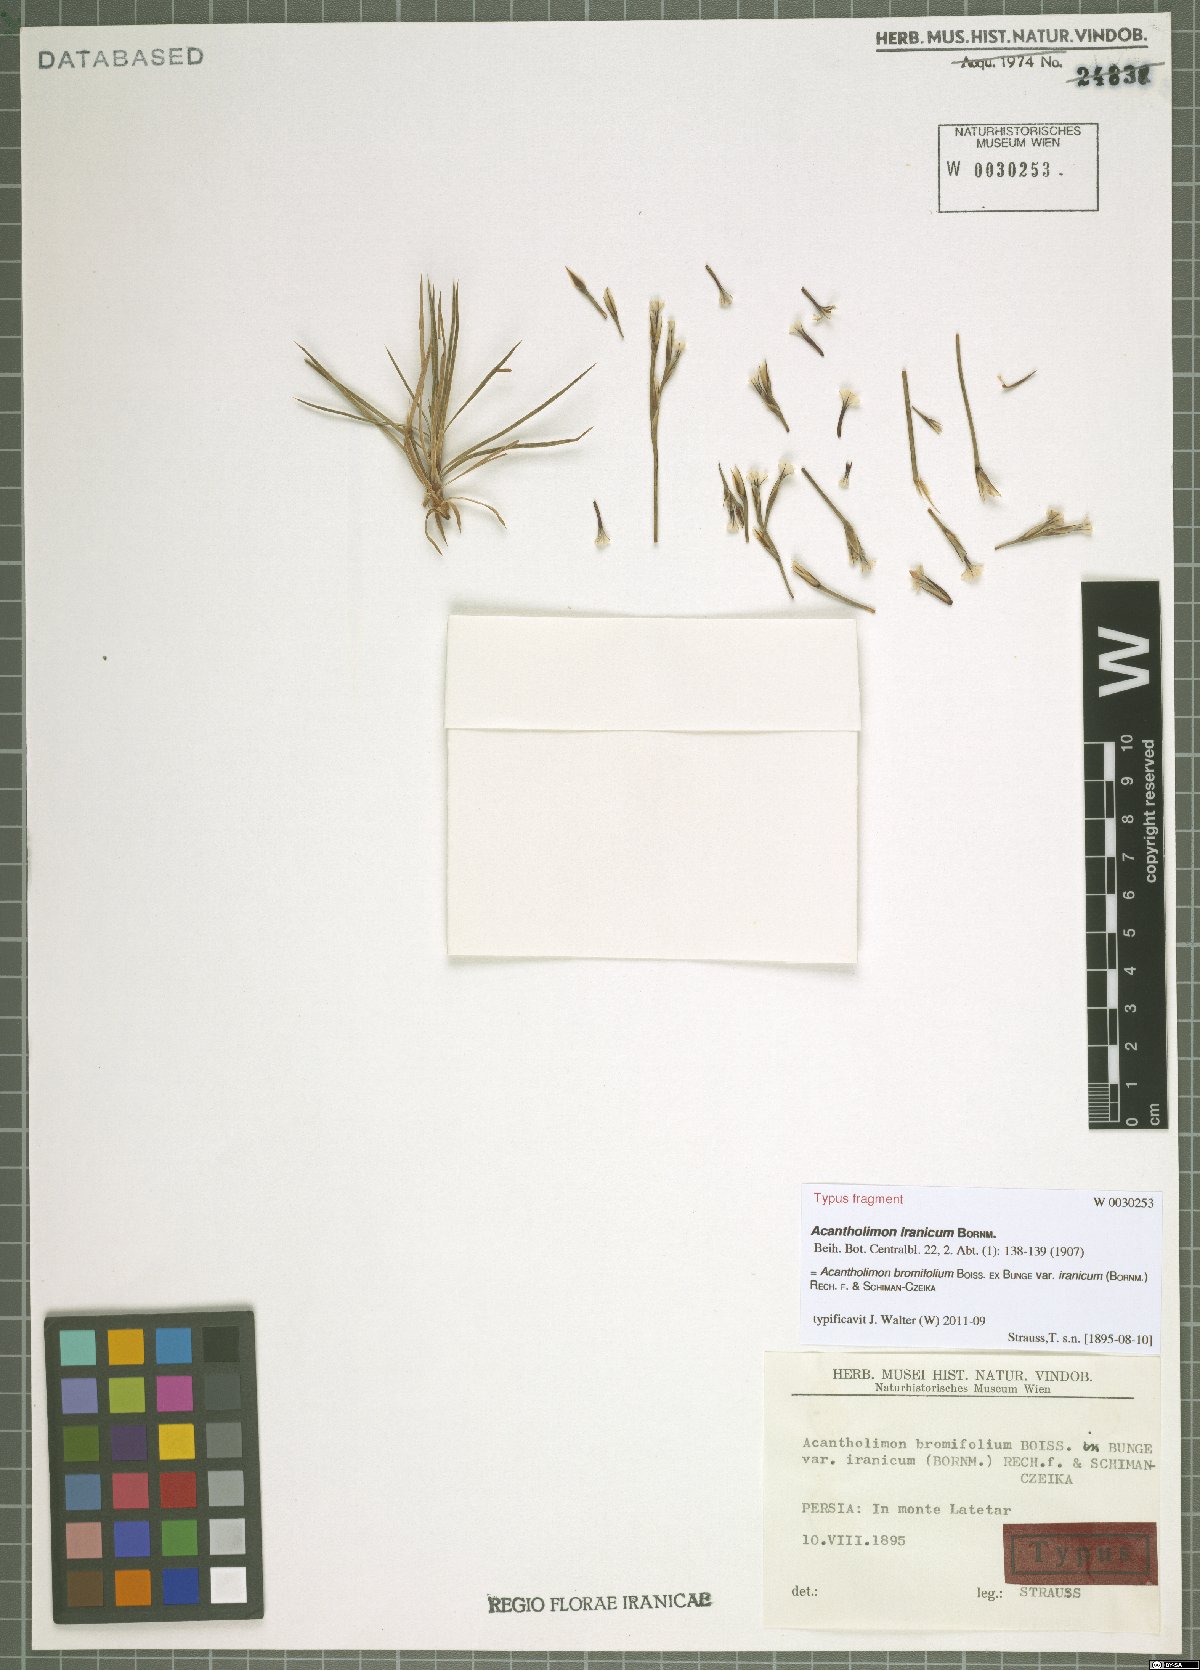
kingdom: Plantae
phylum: Tracheophyta
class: Magnoliopsida
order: Caryophyllales
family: Plumbaginaceae
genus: Acantholimon
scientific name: Acantholimon bromifolium
